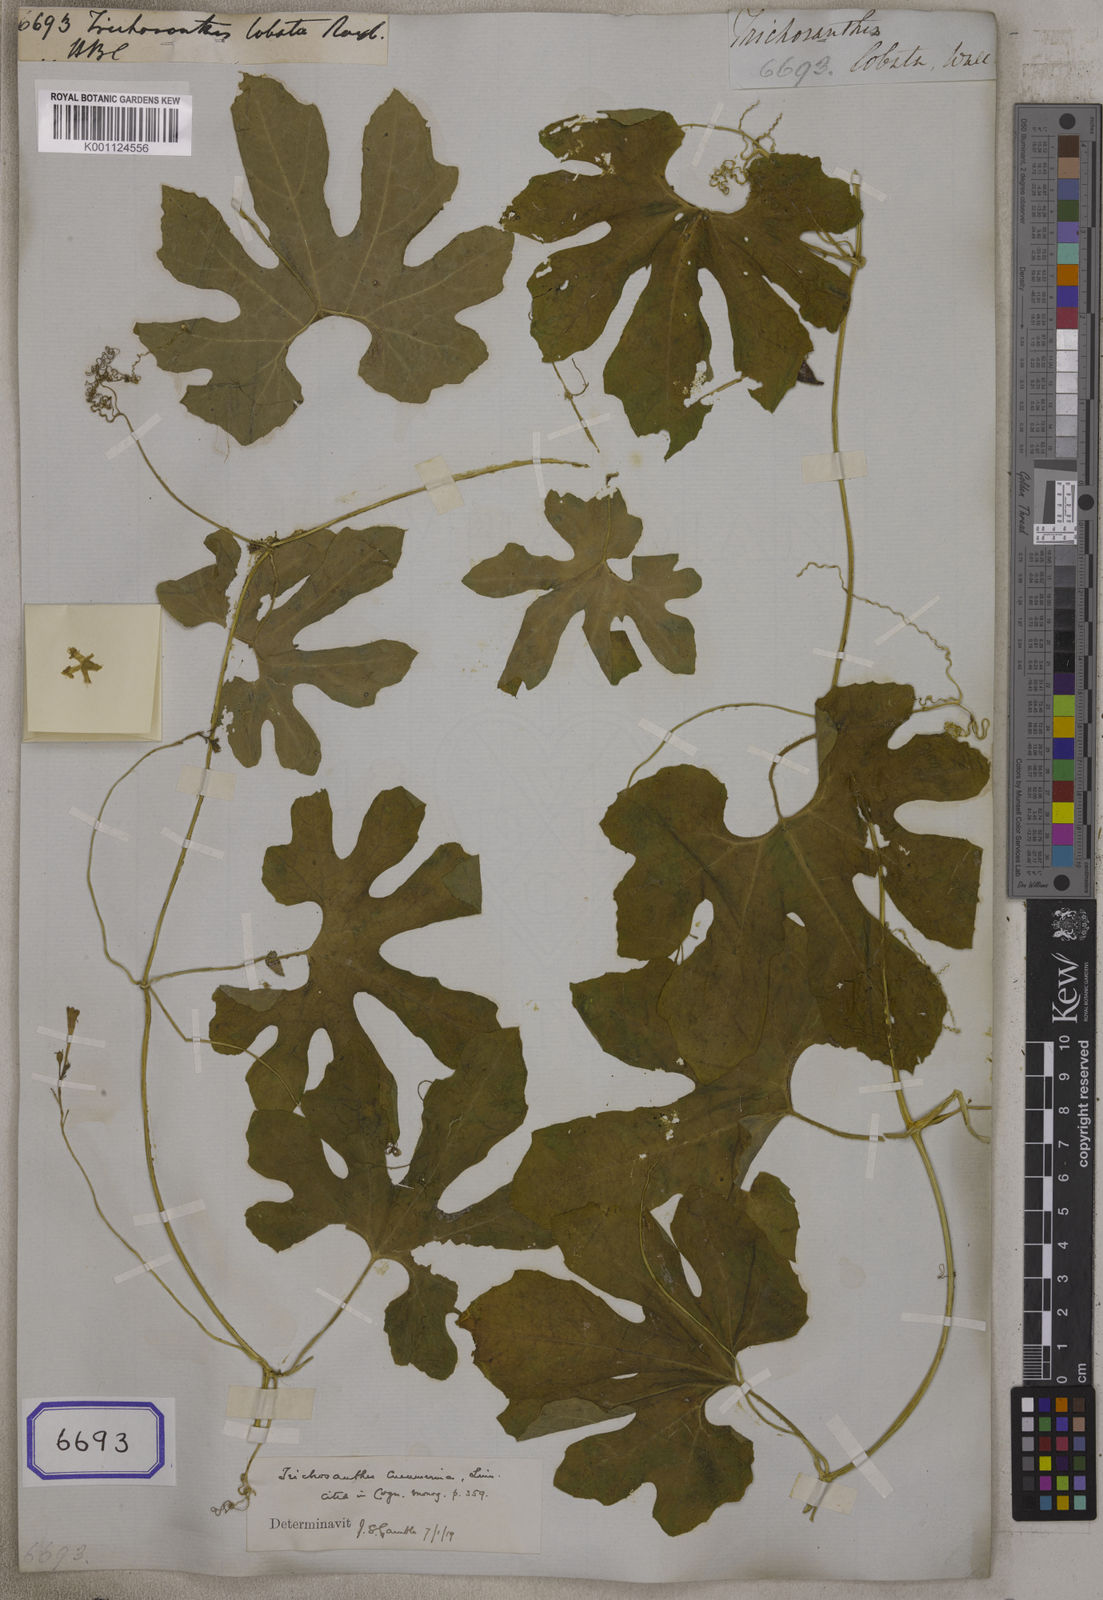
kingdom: Plantae
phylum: Tracheophyta
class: Magnoliopsida
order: Cucurbitales
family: Cucurbitaceae
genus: Trichosanthes
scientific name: Trichosanthes cucumerina
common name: Snakegourd
